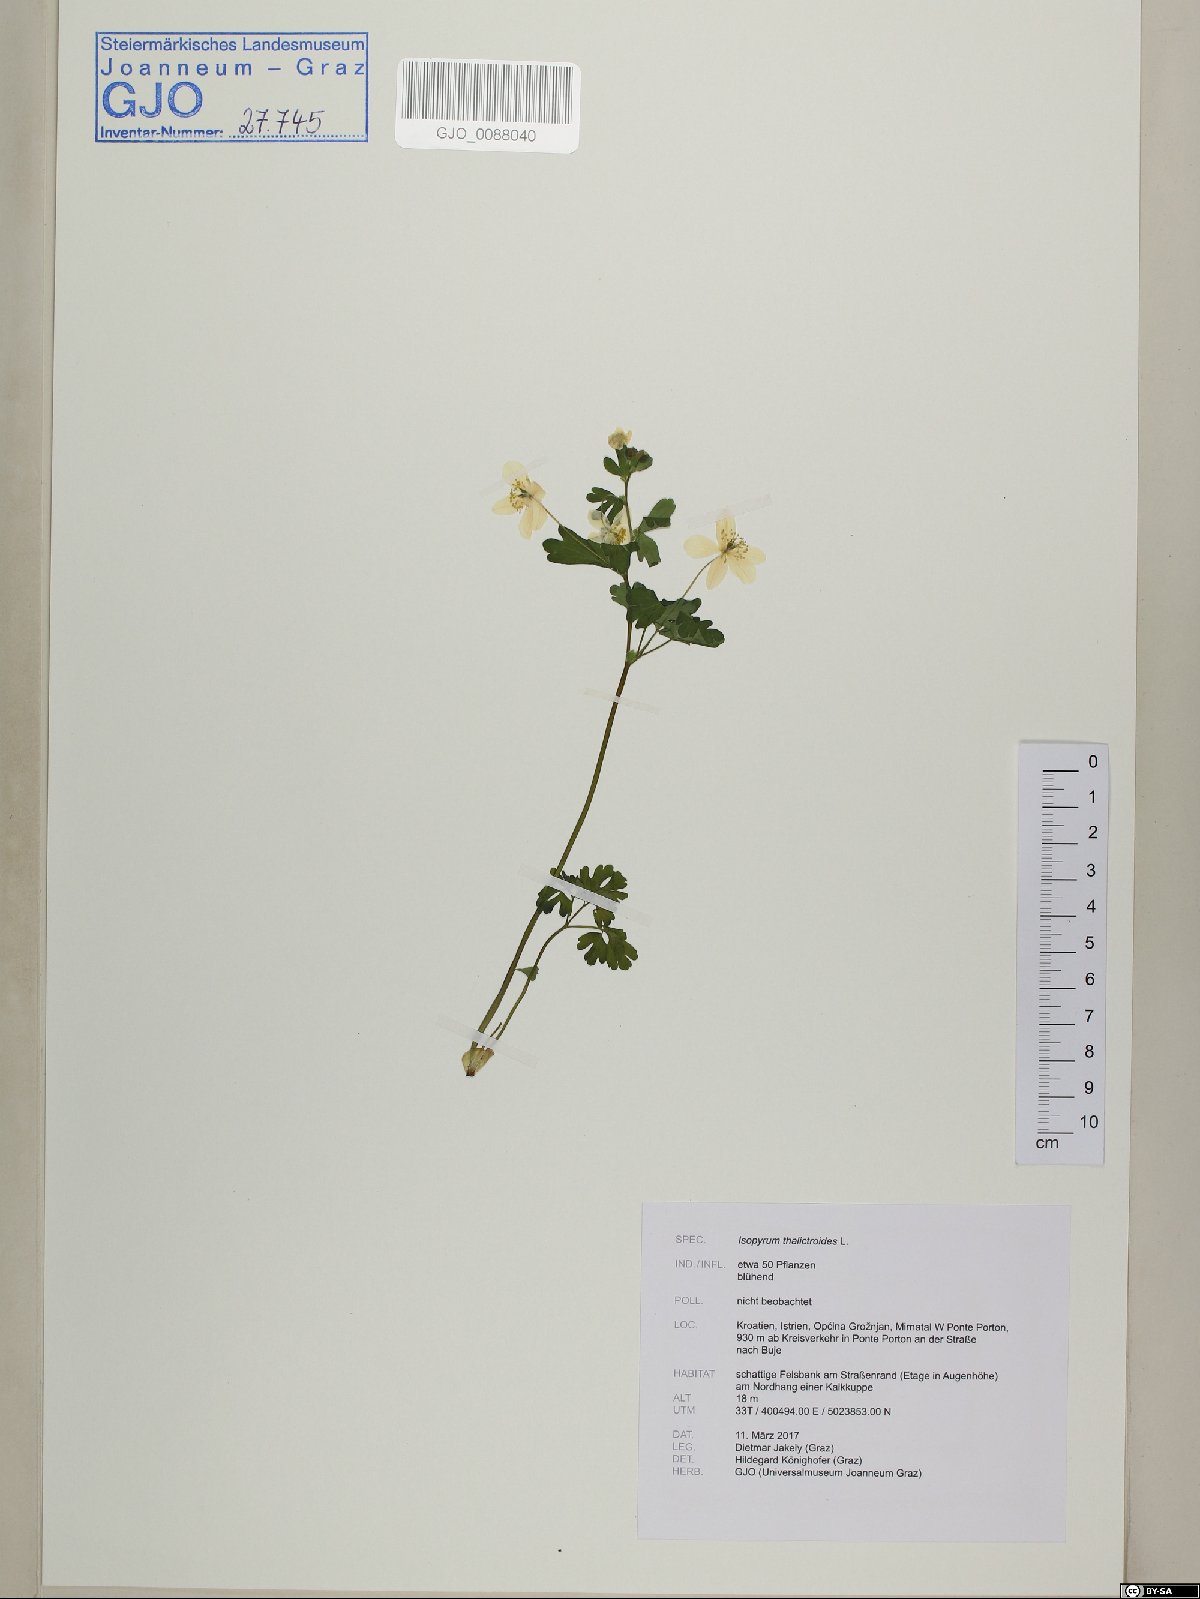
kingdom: Plantae
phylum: Tracheophyta
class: Magnoliopsida
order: Ranunculales
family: Ranunculaceae
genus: Isopyrum
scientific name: Isopyrum thalictroides
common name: Isopyrum
